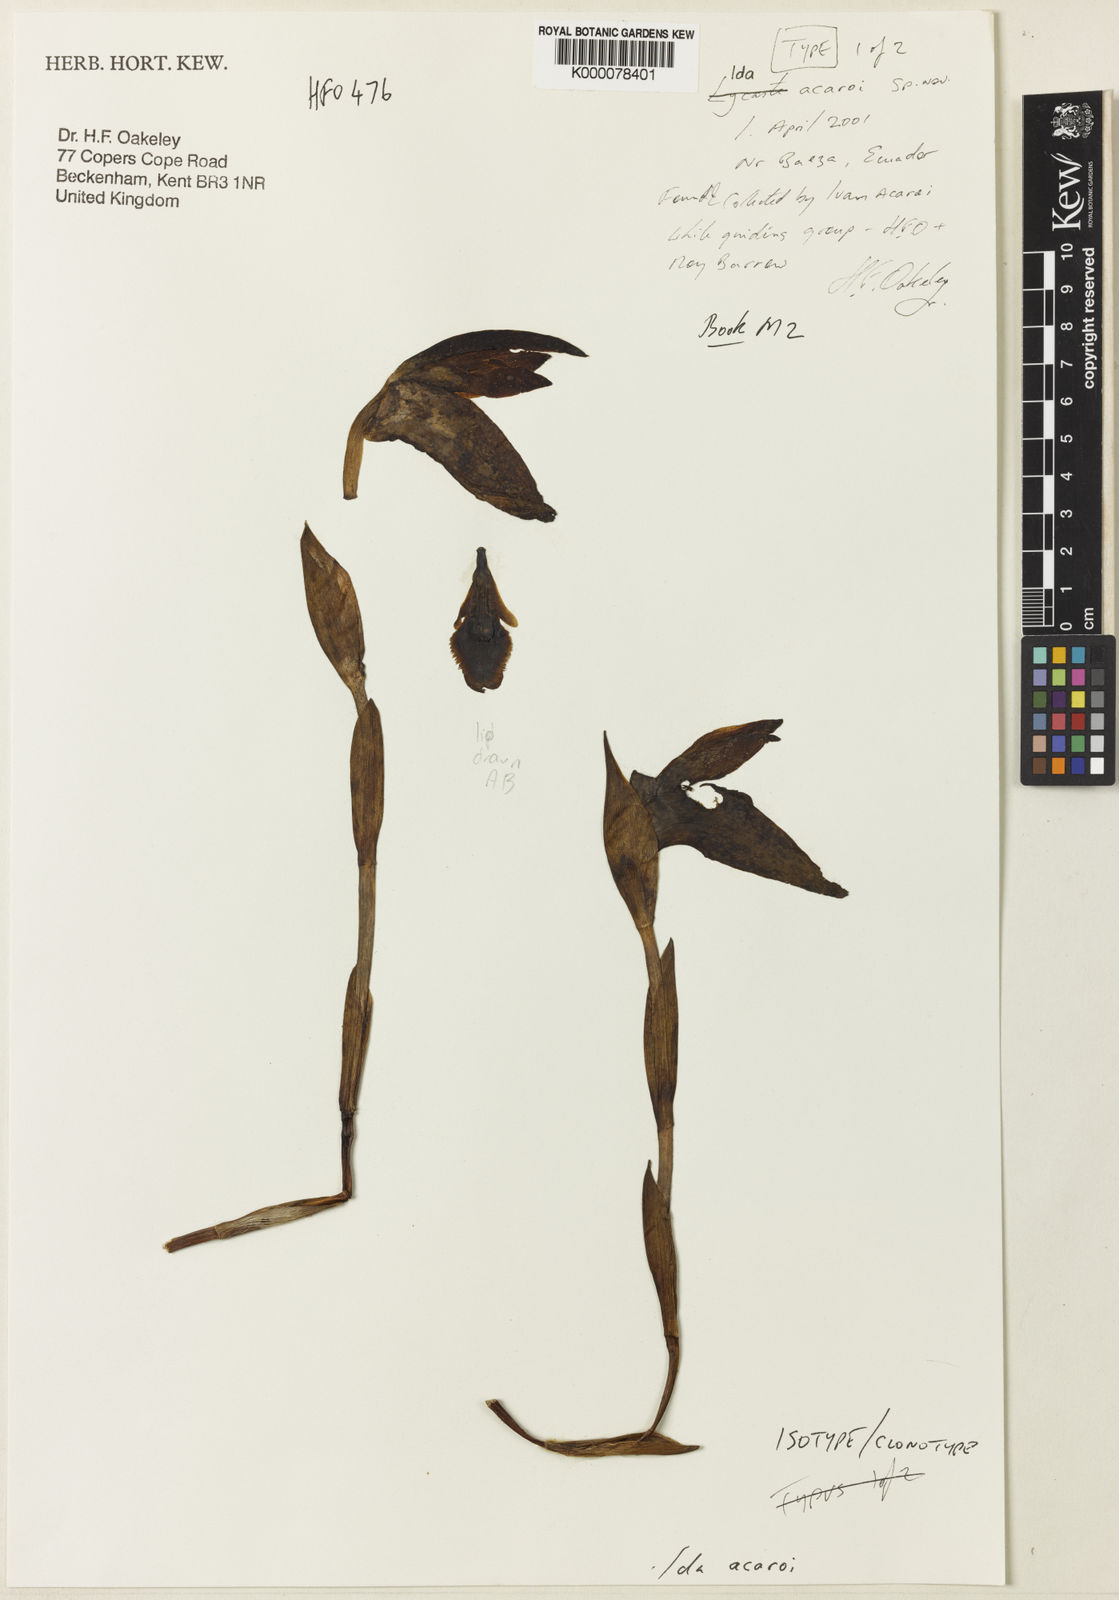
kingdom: Plantae
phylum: Tracheophyta
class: Liliopsida
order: Asparagales
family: Orchidaceae
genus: Ida
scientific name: Ida acaroi
